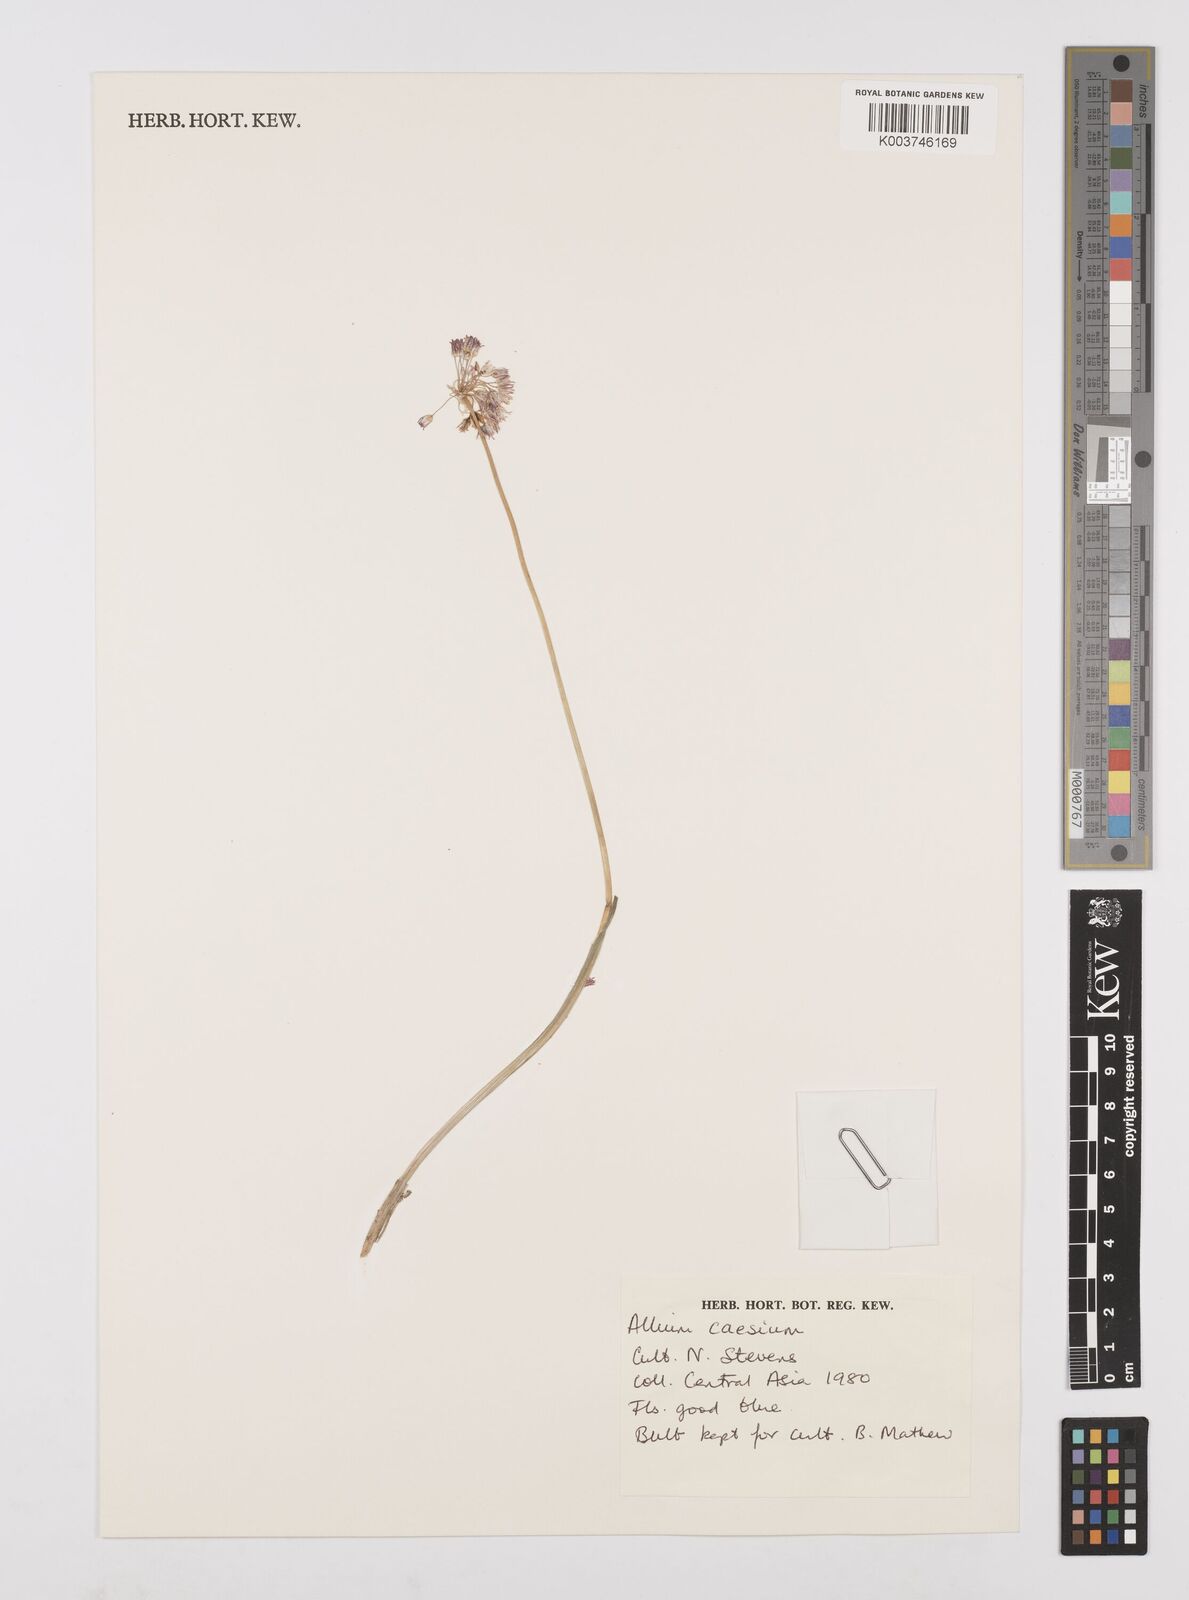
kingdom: Plantae
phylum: Tracheophyta
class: Liliopsida
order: Asparagales
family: Amaryllidaceae
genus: Allium
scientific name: Allium caesium
